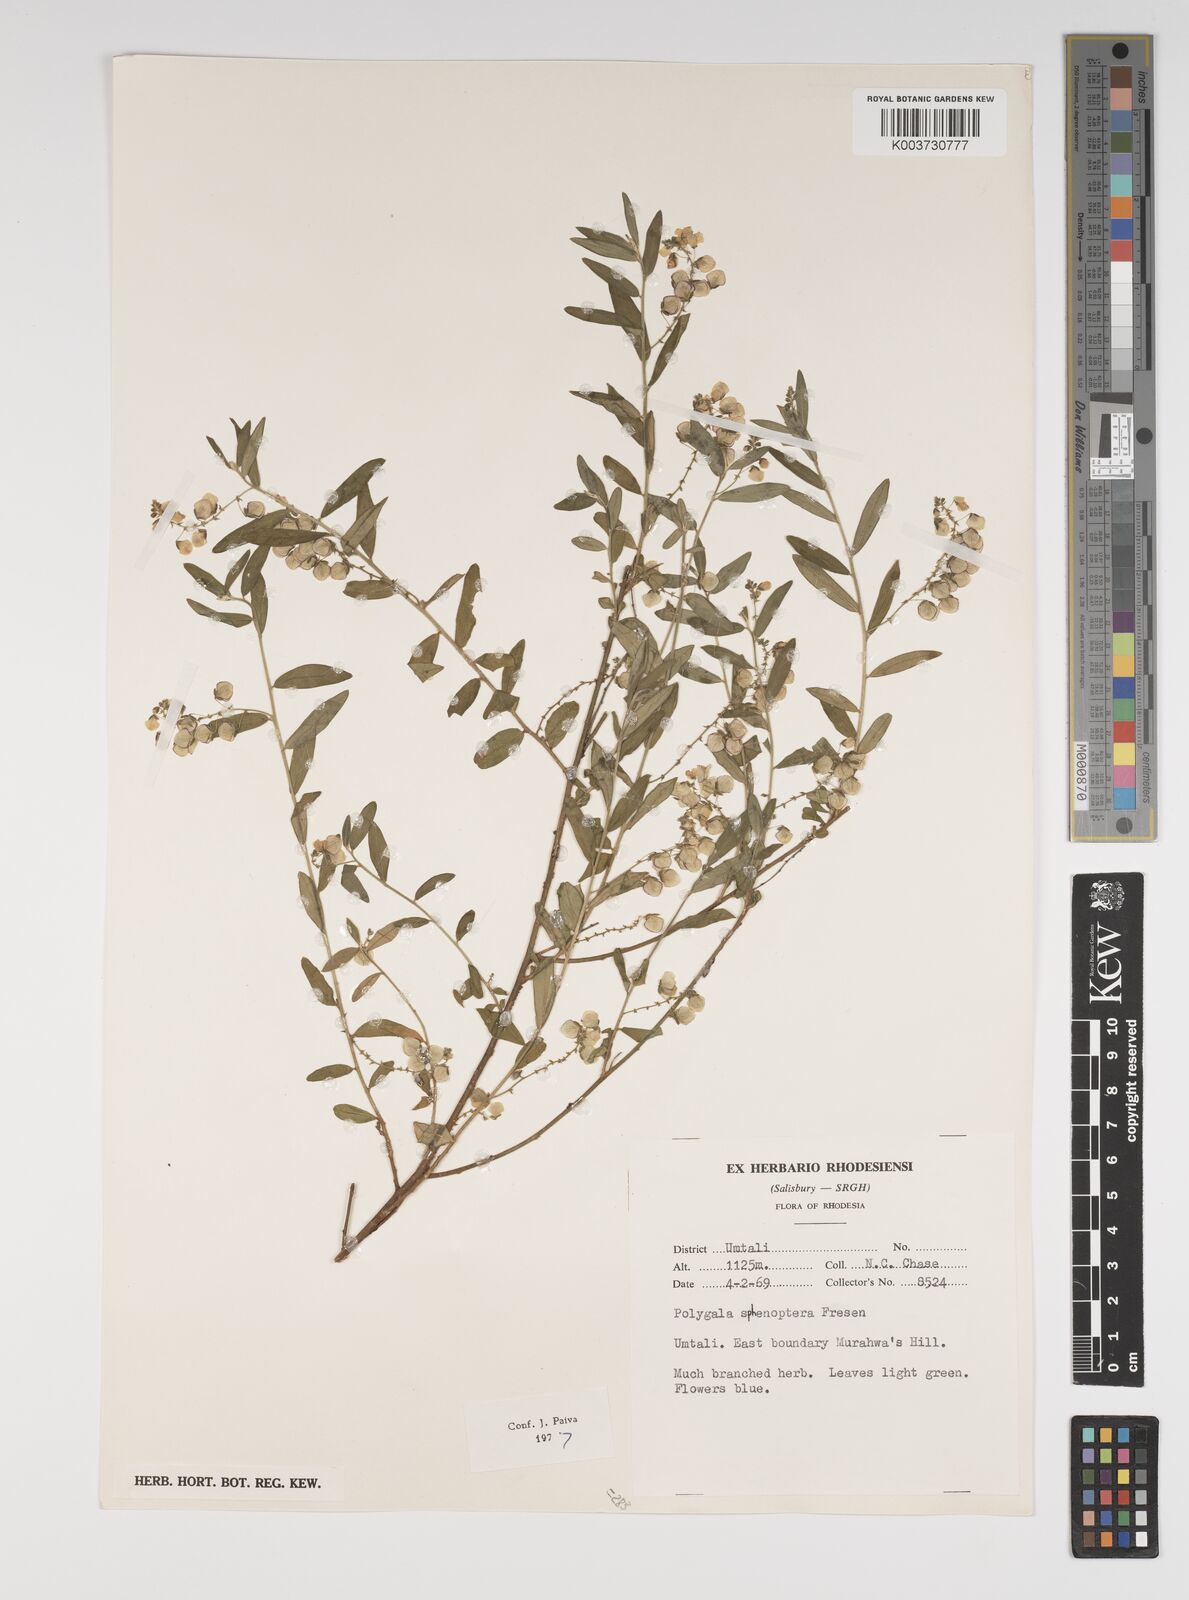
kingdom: Plantae
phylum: Tracheophyta
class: Magnoliopsida
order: Fabales
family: Polygalaceae
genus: Polygala
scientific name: Polygala sphenoptera
